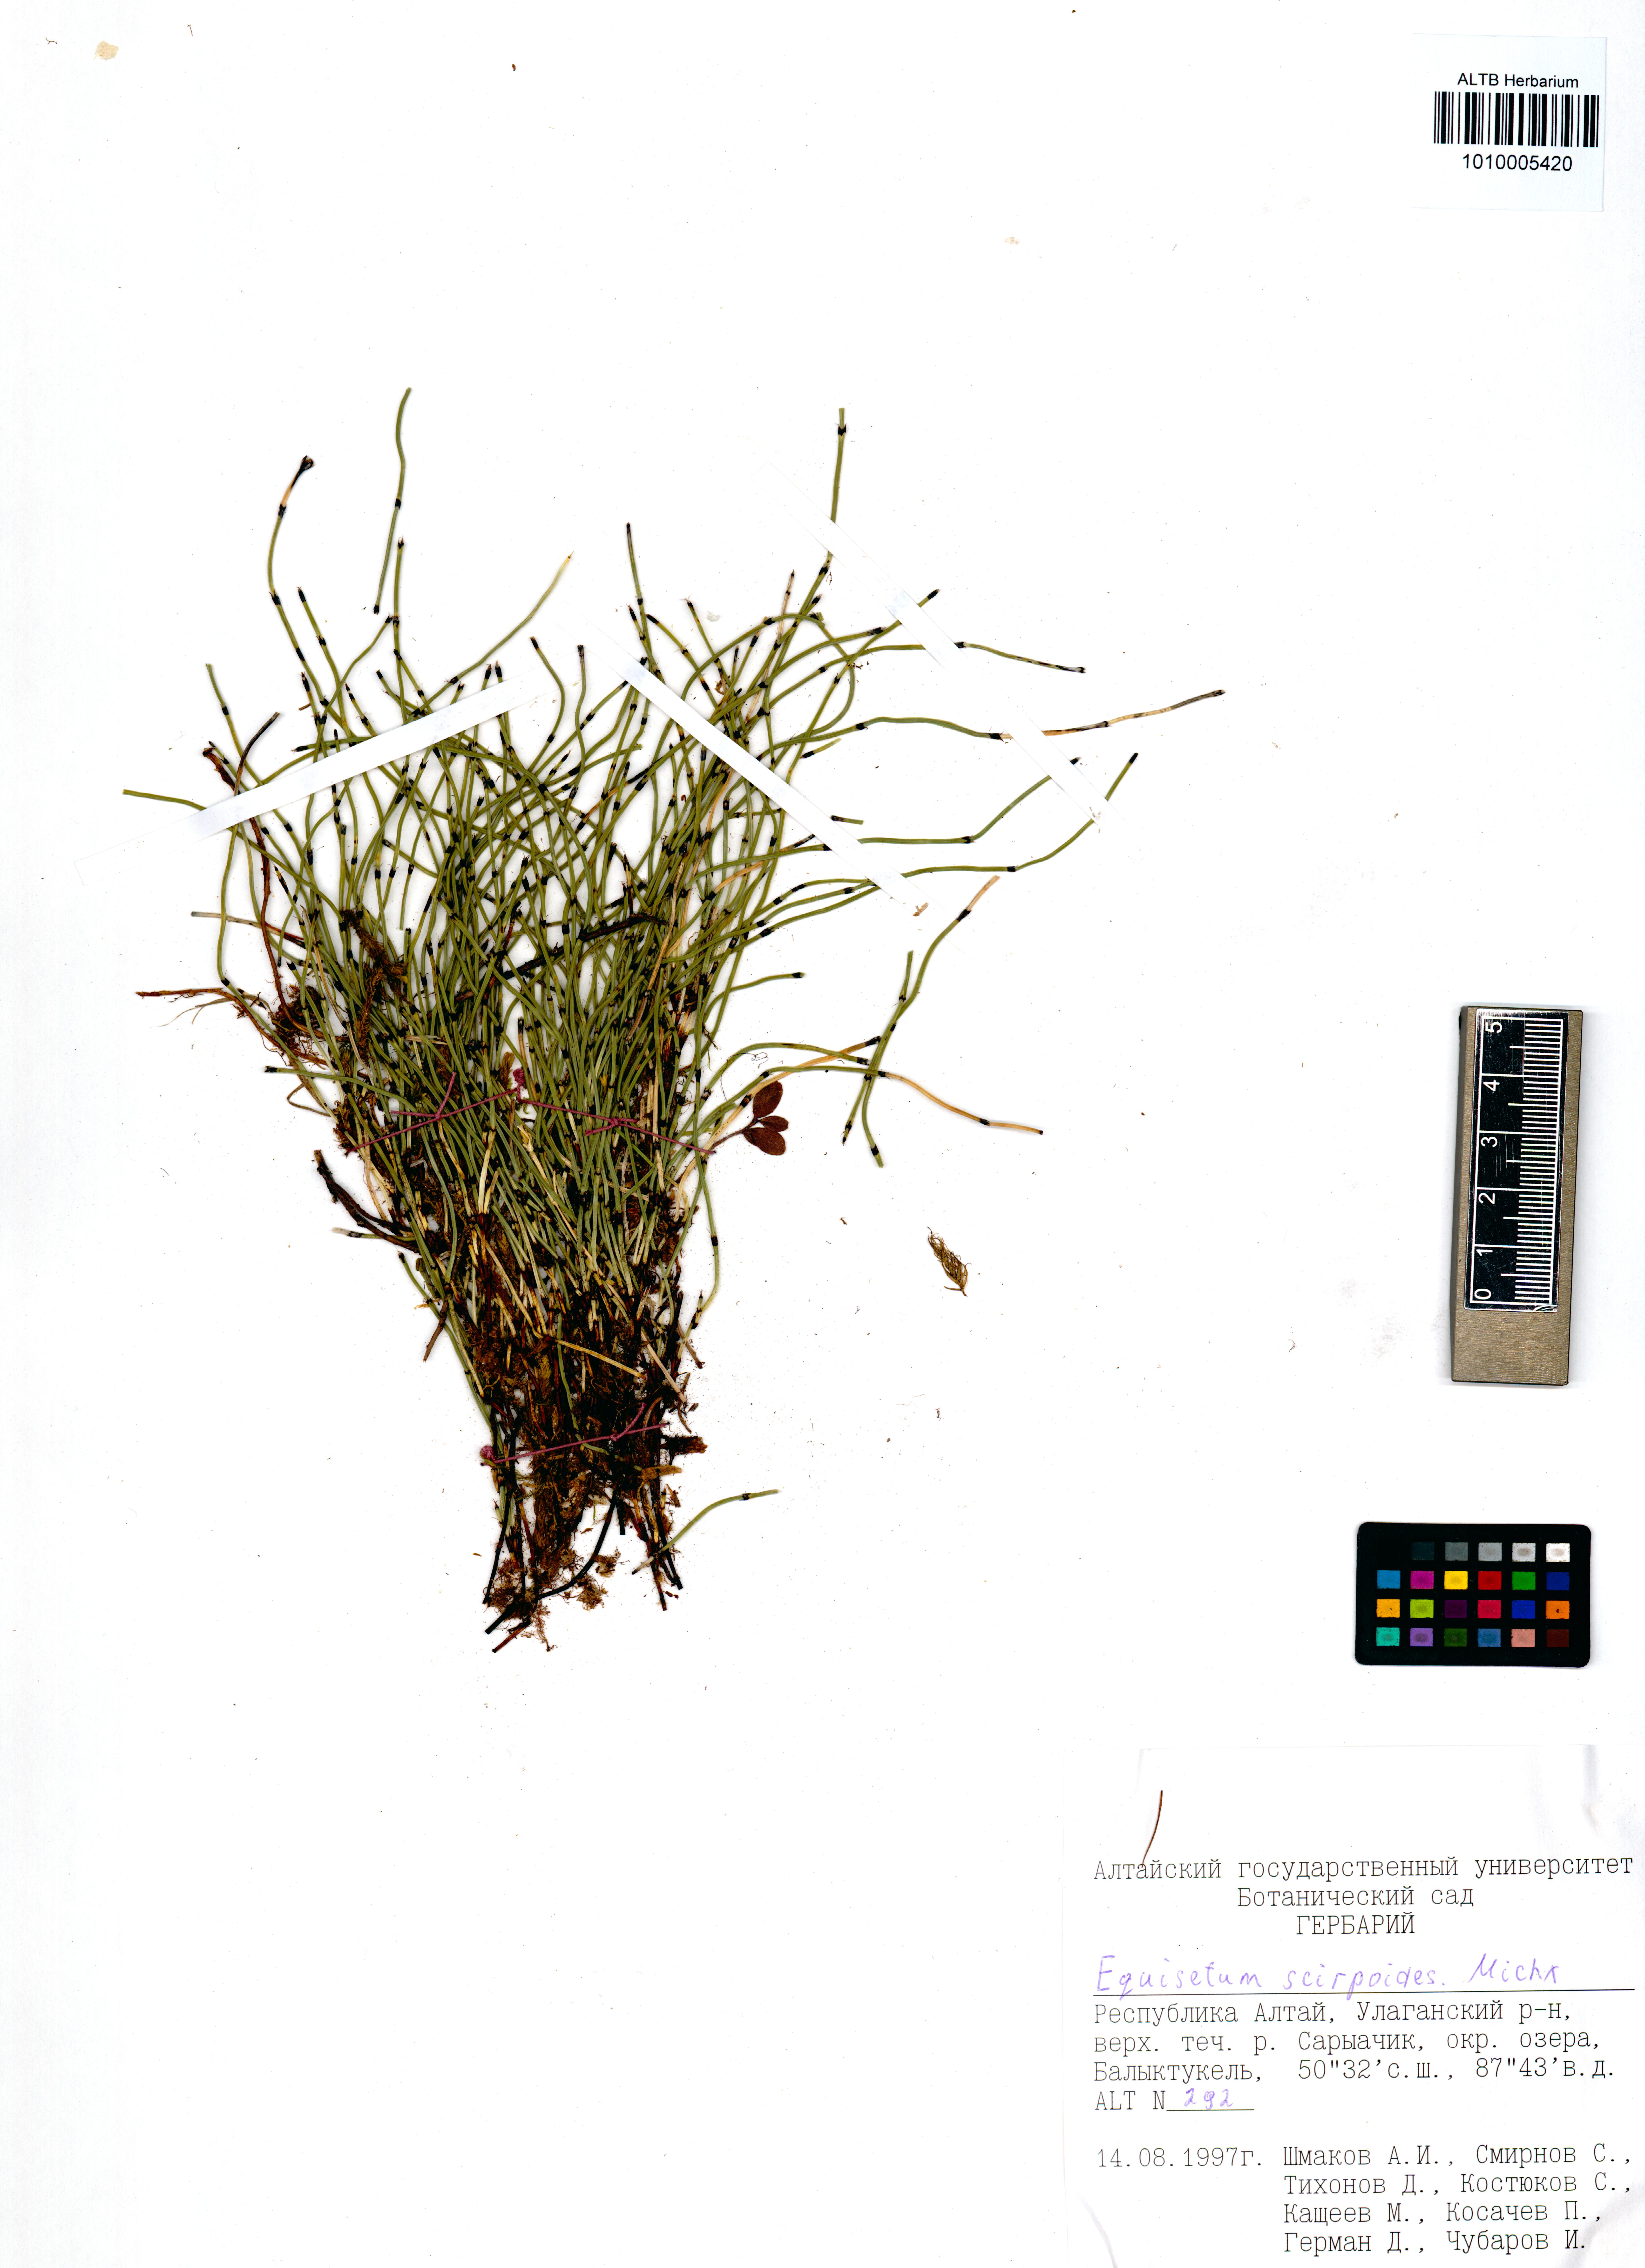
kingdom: Plantae
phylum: Tracheophyta
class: Polypodiopsida
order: Equisetales
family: Equisetaceae
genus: Equisetum
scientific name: Equisetum scirpoides
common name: Delicate horsetail
